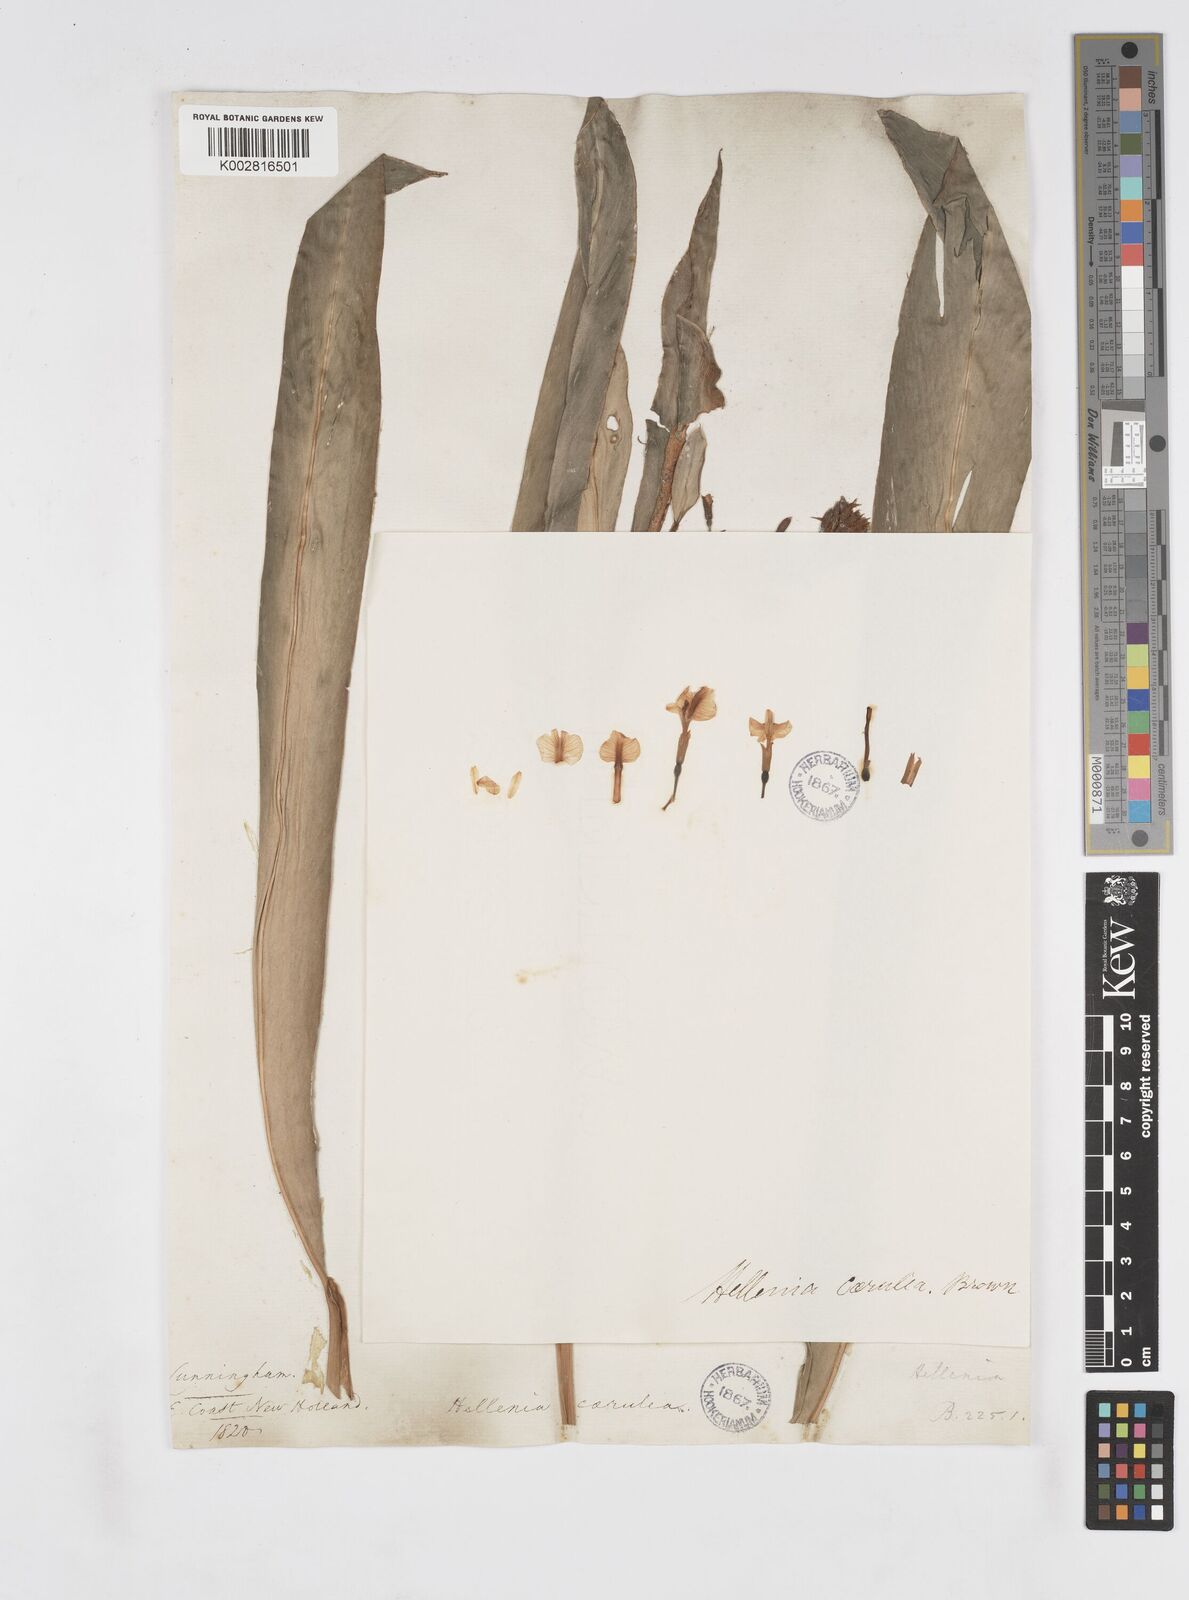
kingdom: Plantae
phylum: Tracheophyta
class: Liliopsida
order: Zingiberales
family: Zingiberaceae
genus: Alpinia
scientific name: Alpinia
